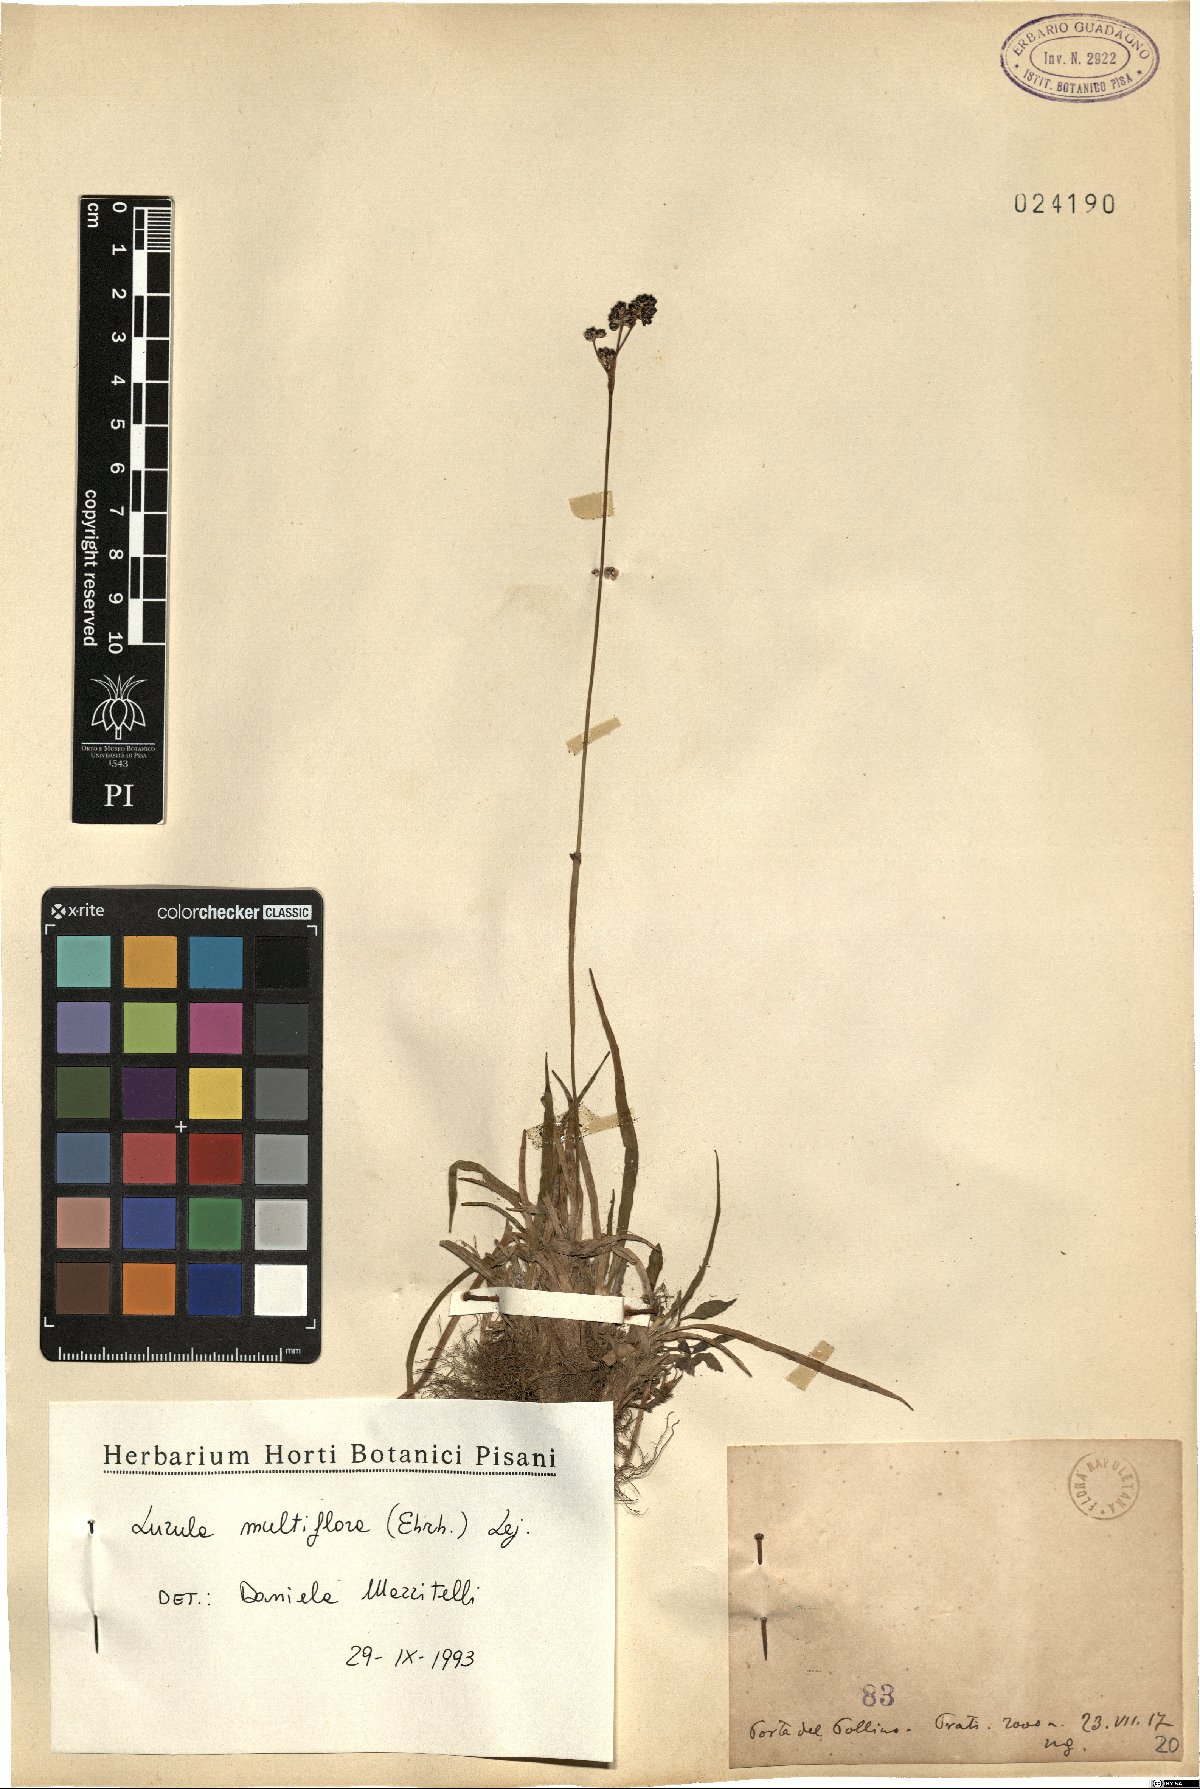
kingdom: Plantae
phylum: Tracheophyta
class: Liliopsida
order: Poales
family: Juncaceae
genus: Luzula
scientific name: Luzula multiflora
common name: Heath wood-rush
